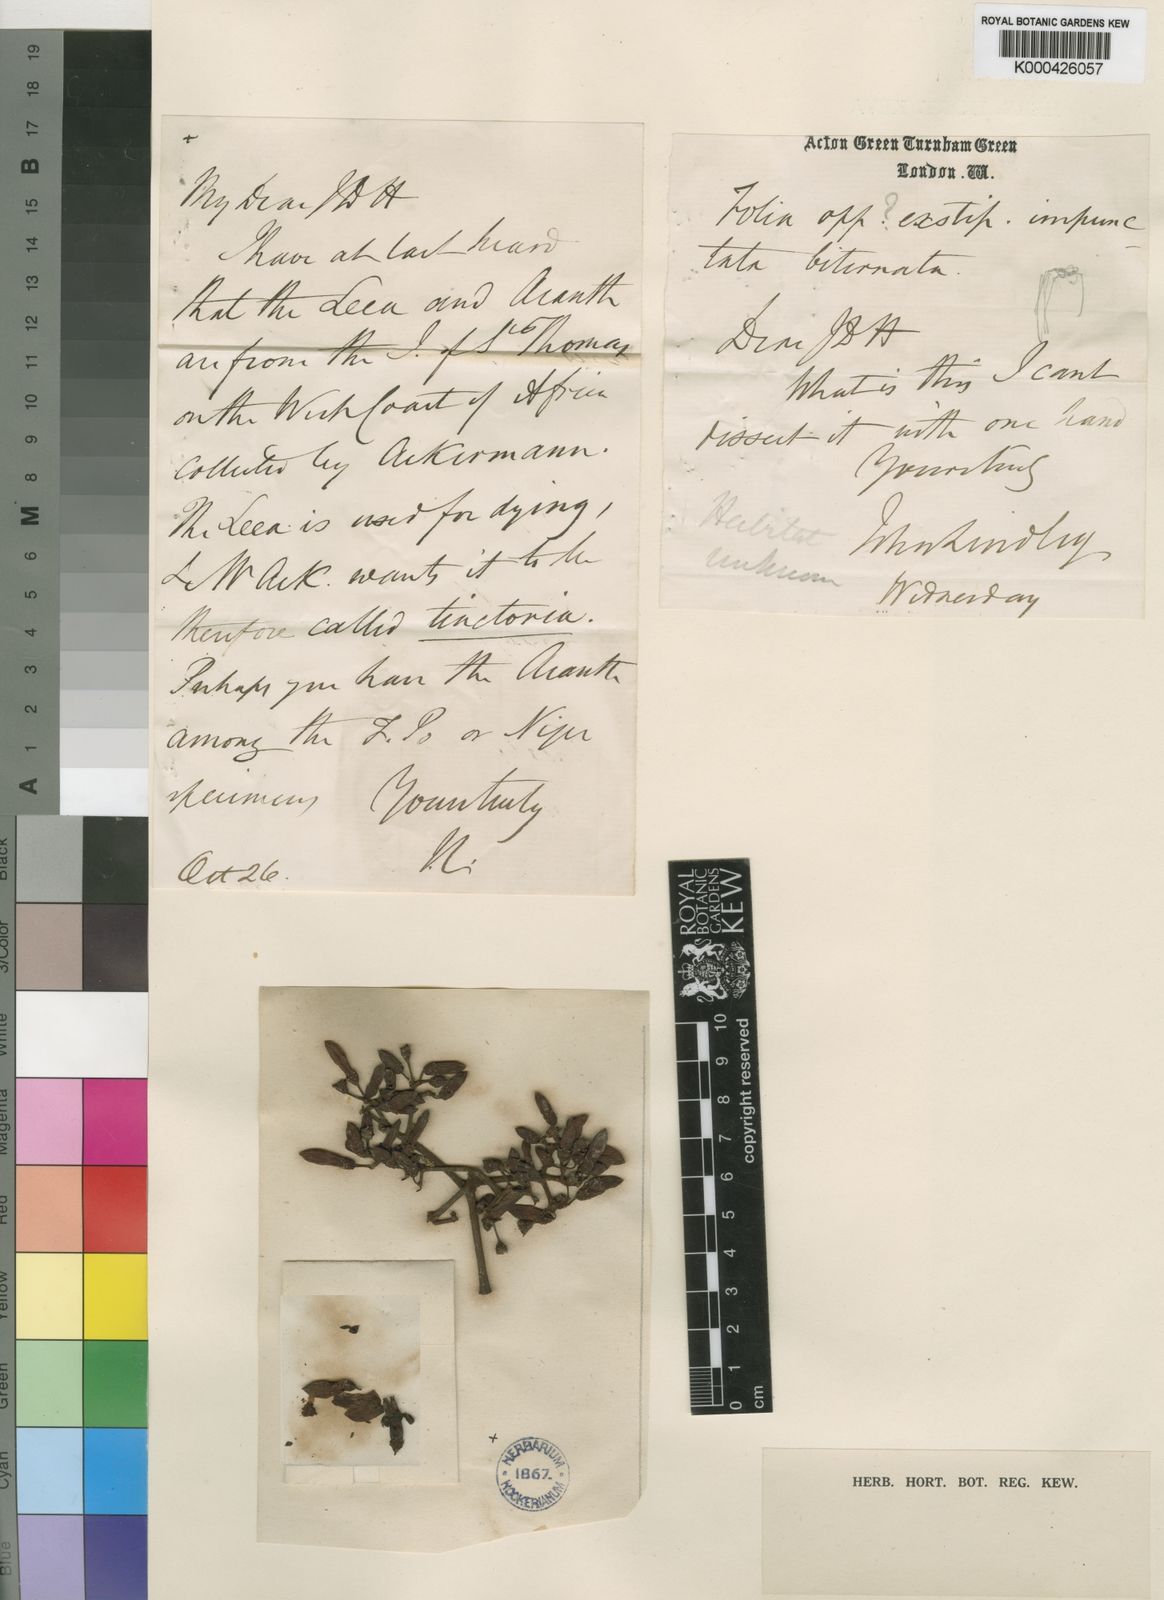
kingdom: Plantae
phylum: Tracheophyta
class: Magnoliopsida
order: Vitales
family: Vitaceae
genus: Leea
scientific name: Leea tinctoria
